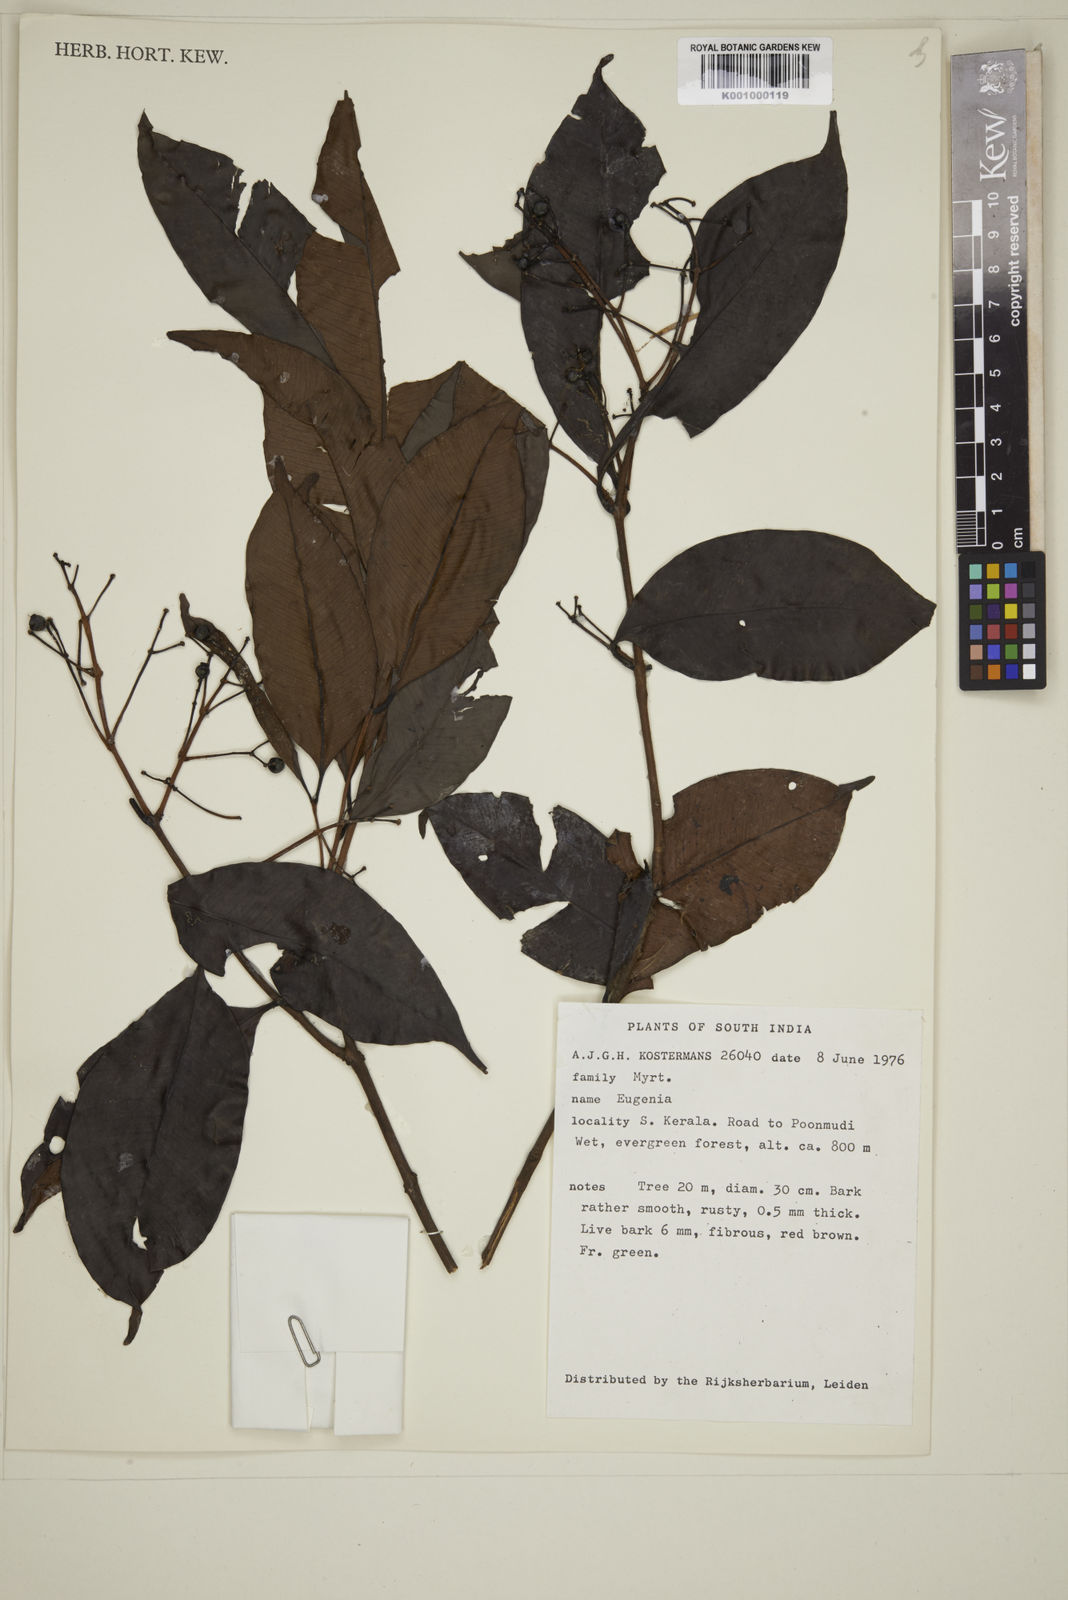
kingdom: Plantae
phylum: Tracheophyta
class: Magnoliopsida
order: Myrtales
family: Myrtaceae
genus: Eugenia
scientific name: Eugenia
